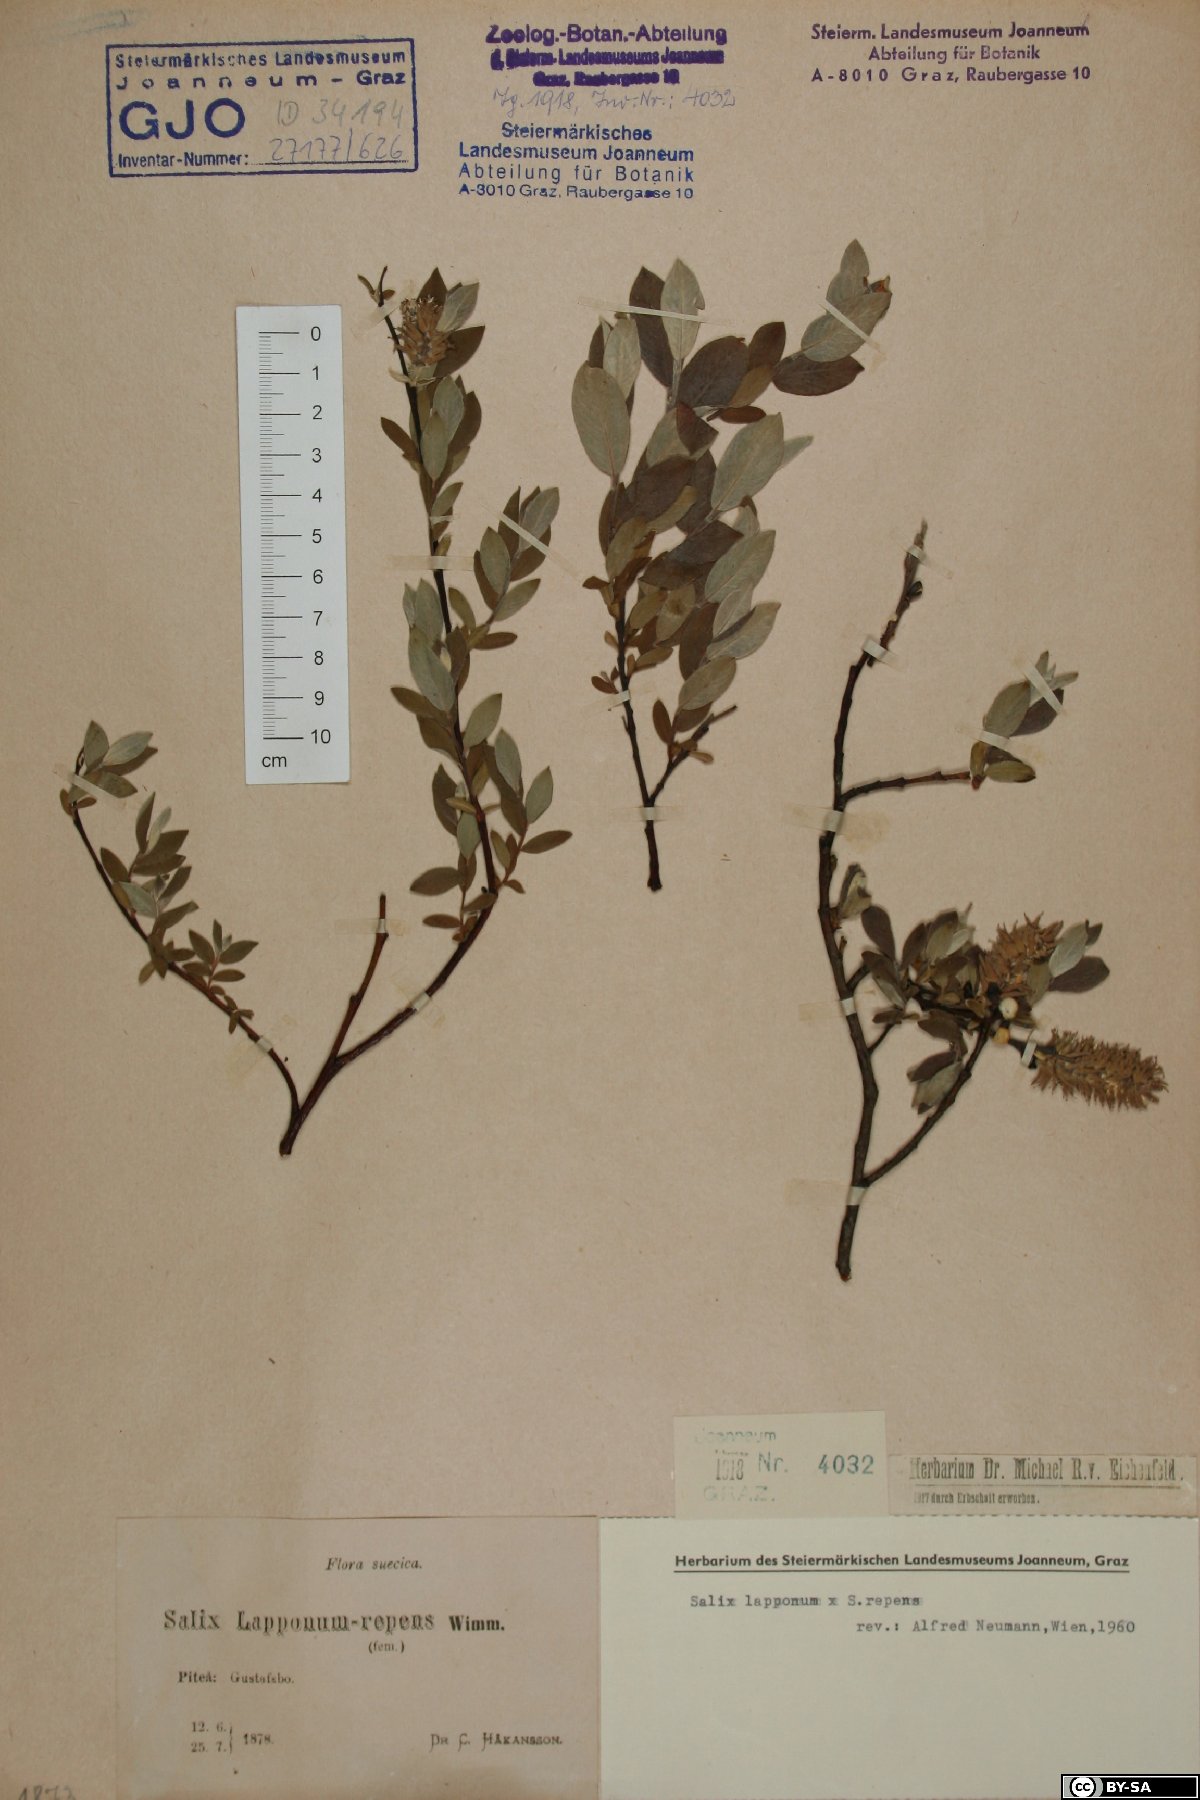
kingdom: Plantae
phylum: Tracheophyta
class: Magnoliopsida
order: Malpighiales
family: Salicaceae
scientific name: Salicaceae
